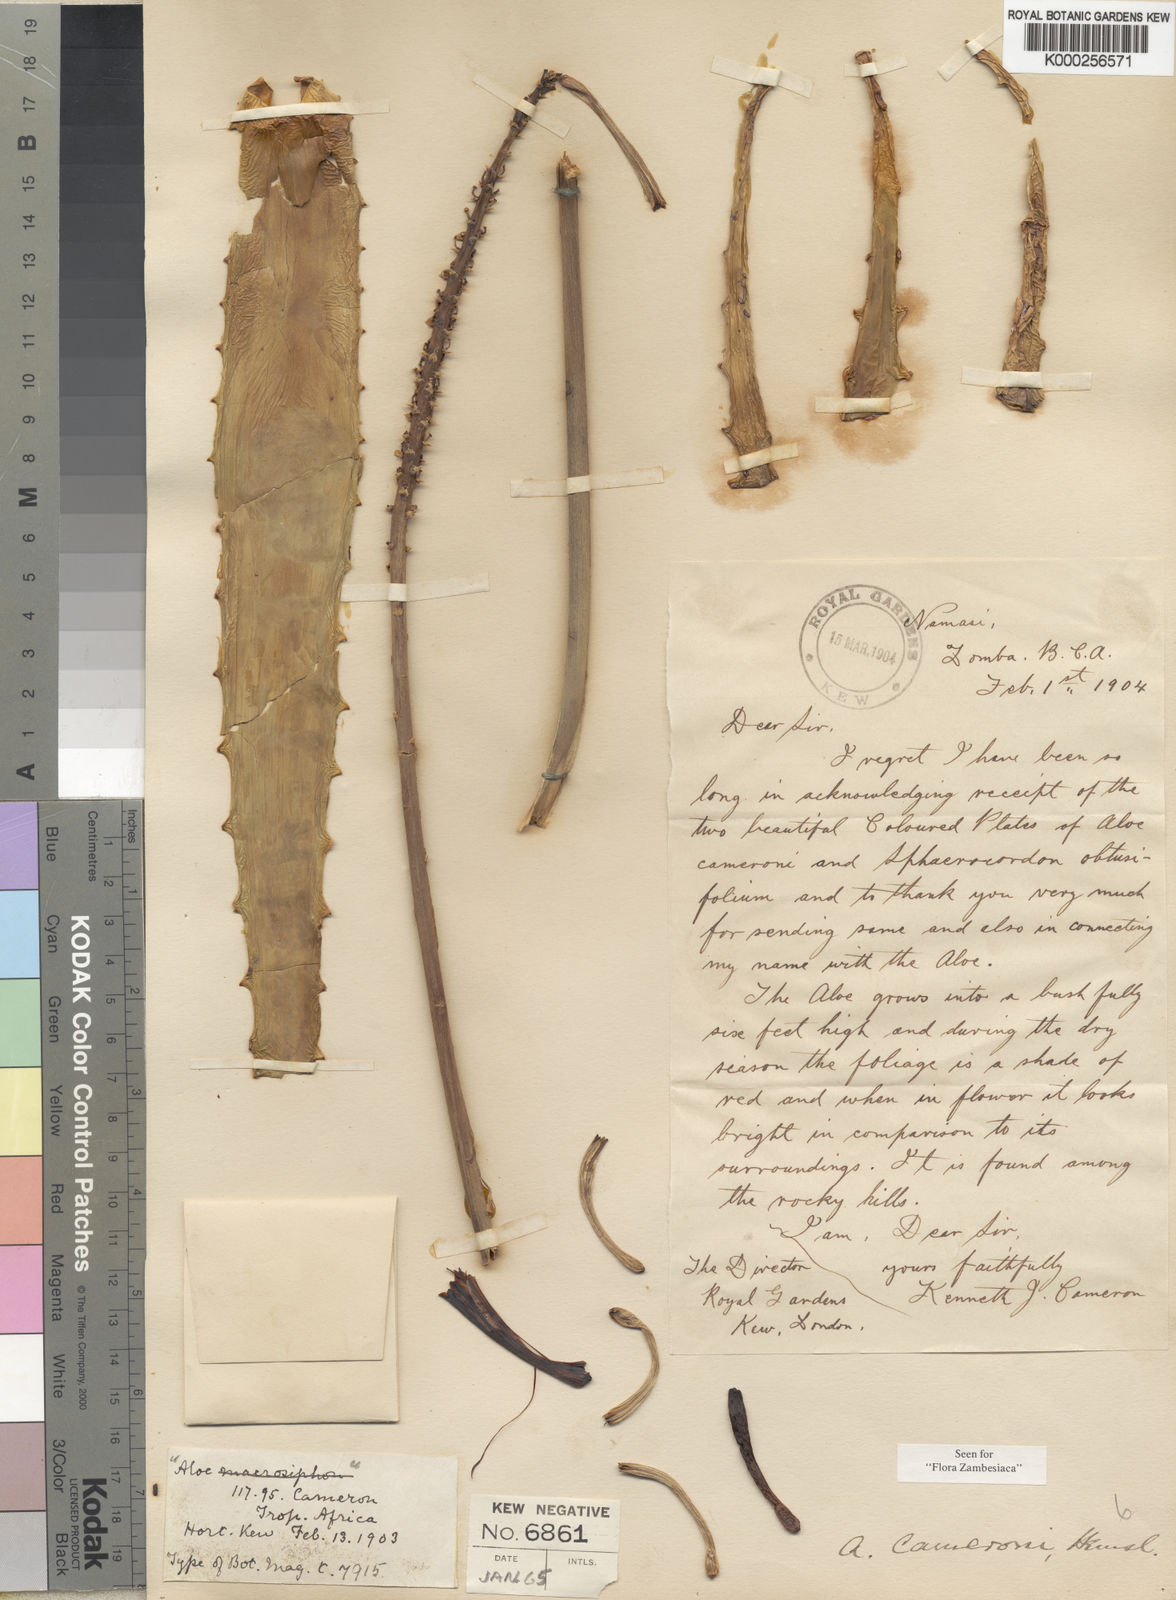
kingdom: Plantae
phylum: Tracheophyta
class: Liliopsida
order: Asparagales
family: Asphodelaceae
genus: Aloe
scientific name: Aloe cameronii
